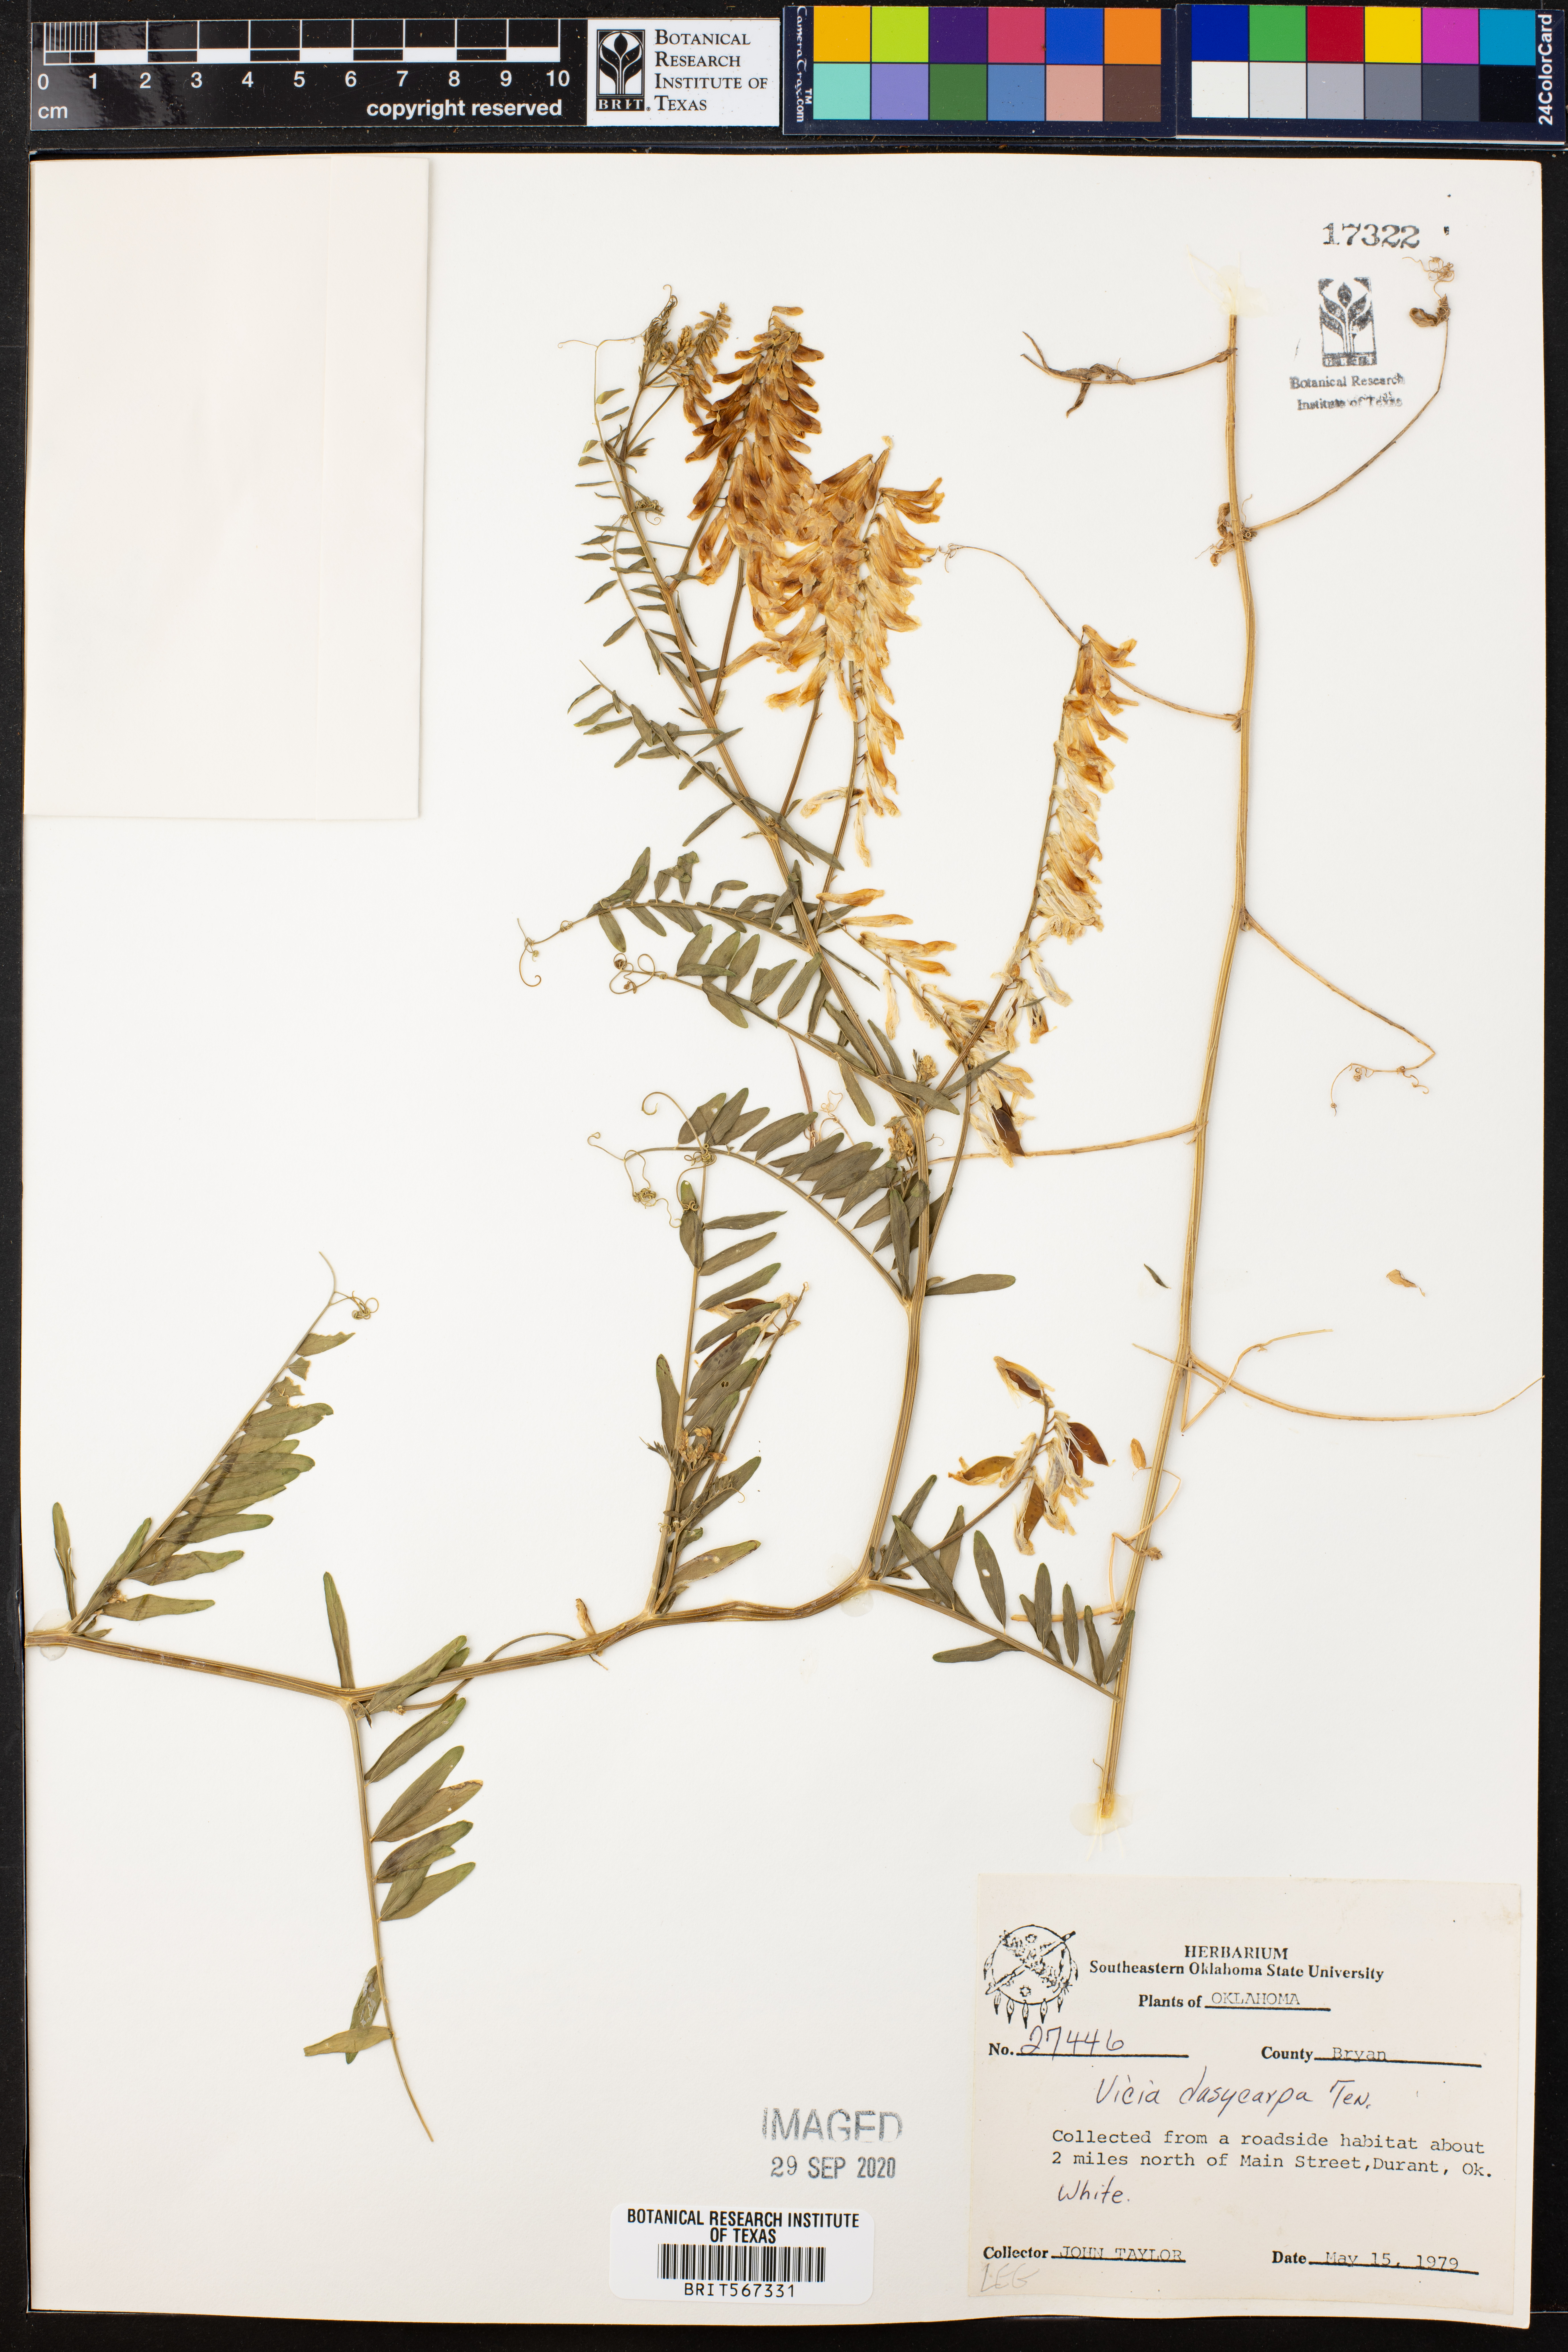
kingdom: Plantae
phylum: Tracheophyta
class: Magnoliopsida
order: Fabales
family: Fabaceae
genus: Vicia
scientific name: Vicia villosa
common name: Fodder vetch
